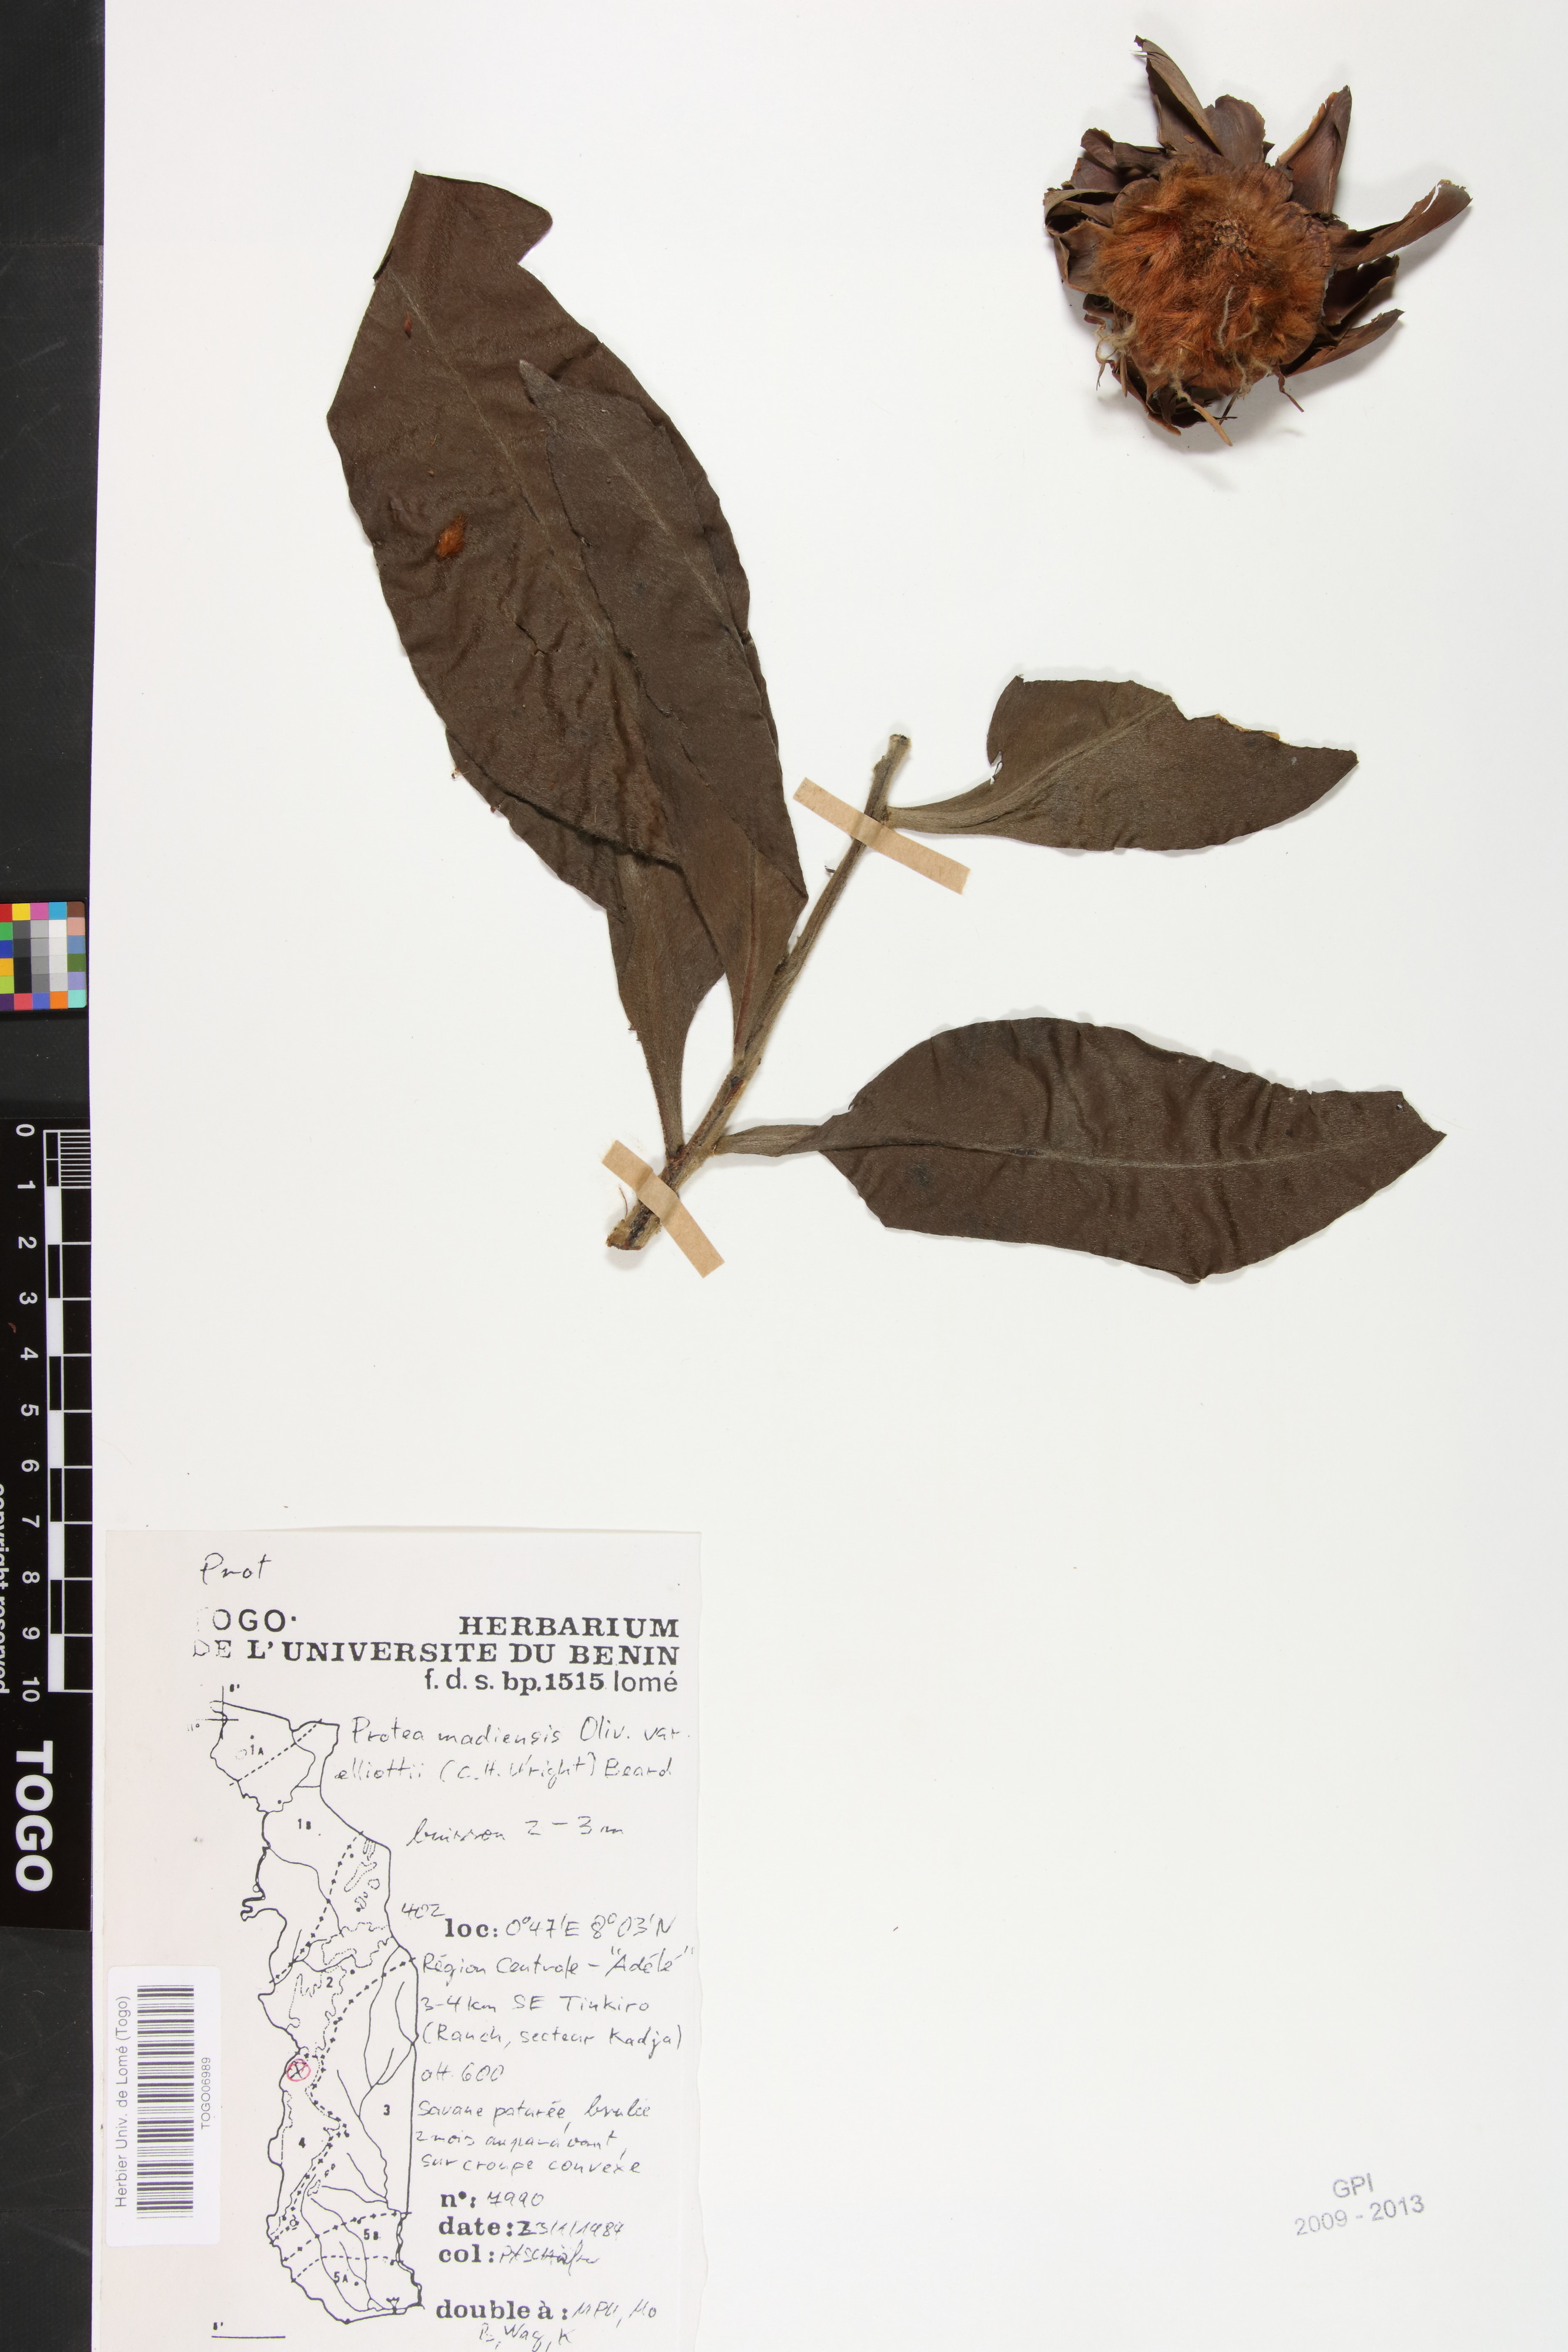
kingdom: Plantae
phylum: Tracheophyta
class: Magnoliopsida
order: Proteales
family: Proteaceae
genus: Protea
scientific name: Protea madiensis
